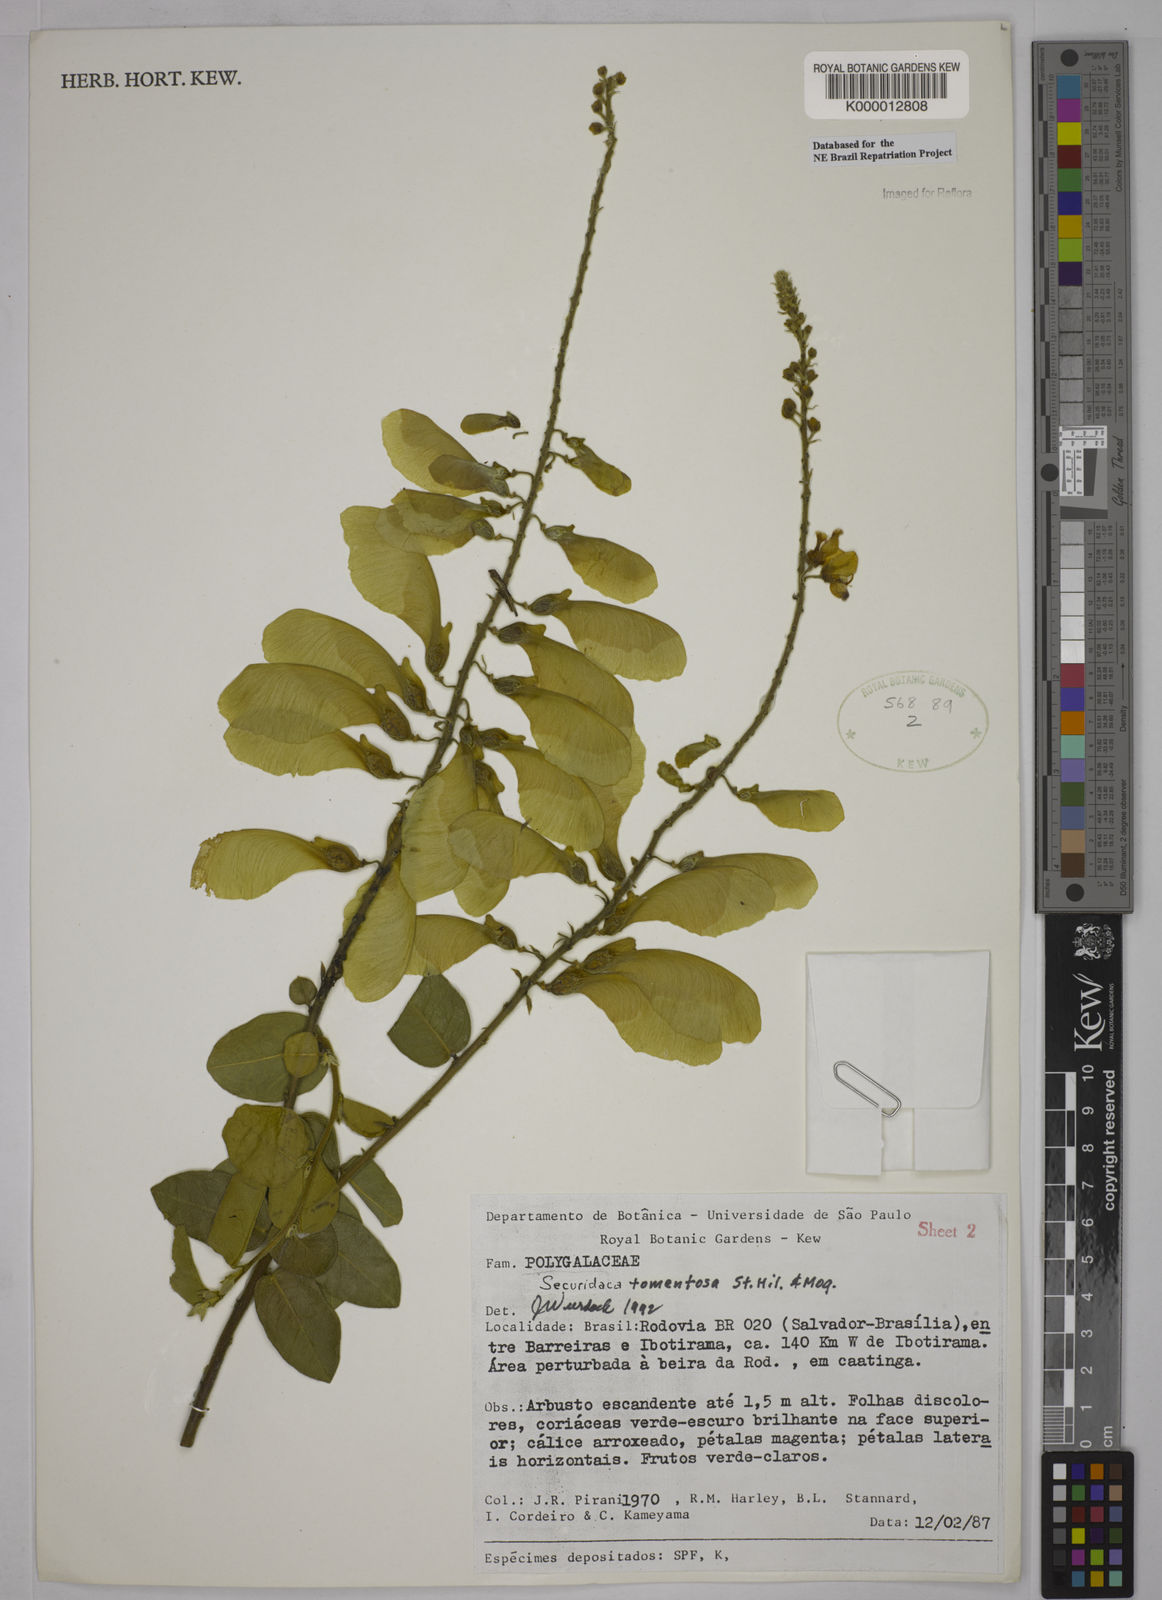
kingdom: Plantae
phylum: Tracheophyta
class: Magnoliopsida
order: Fabales
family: Polygalaceae
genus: Securidaca
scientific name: Securidaca tomentosa
